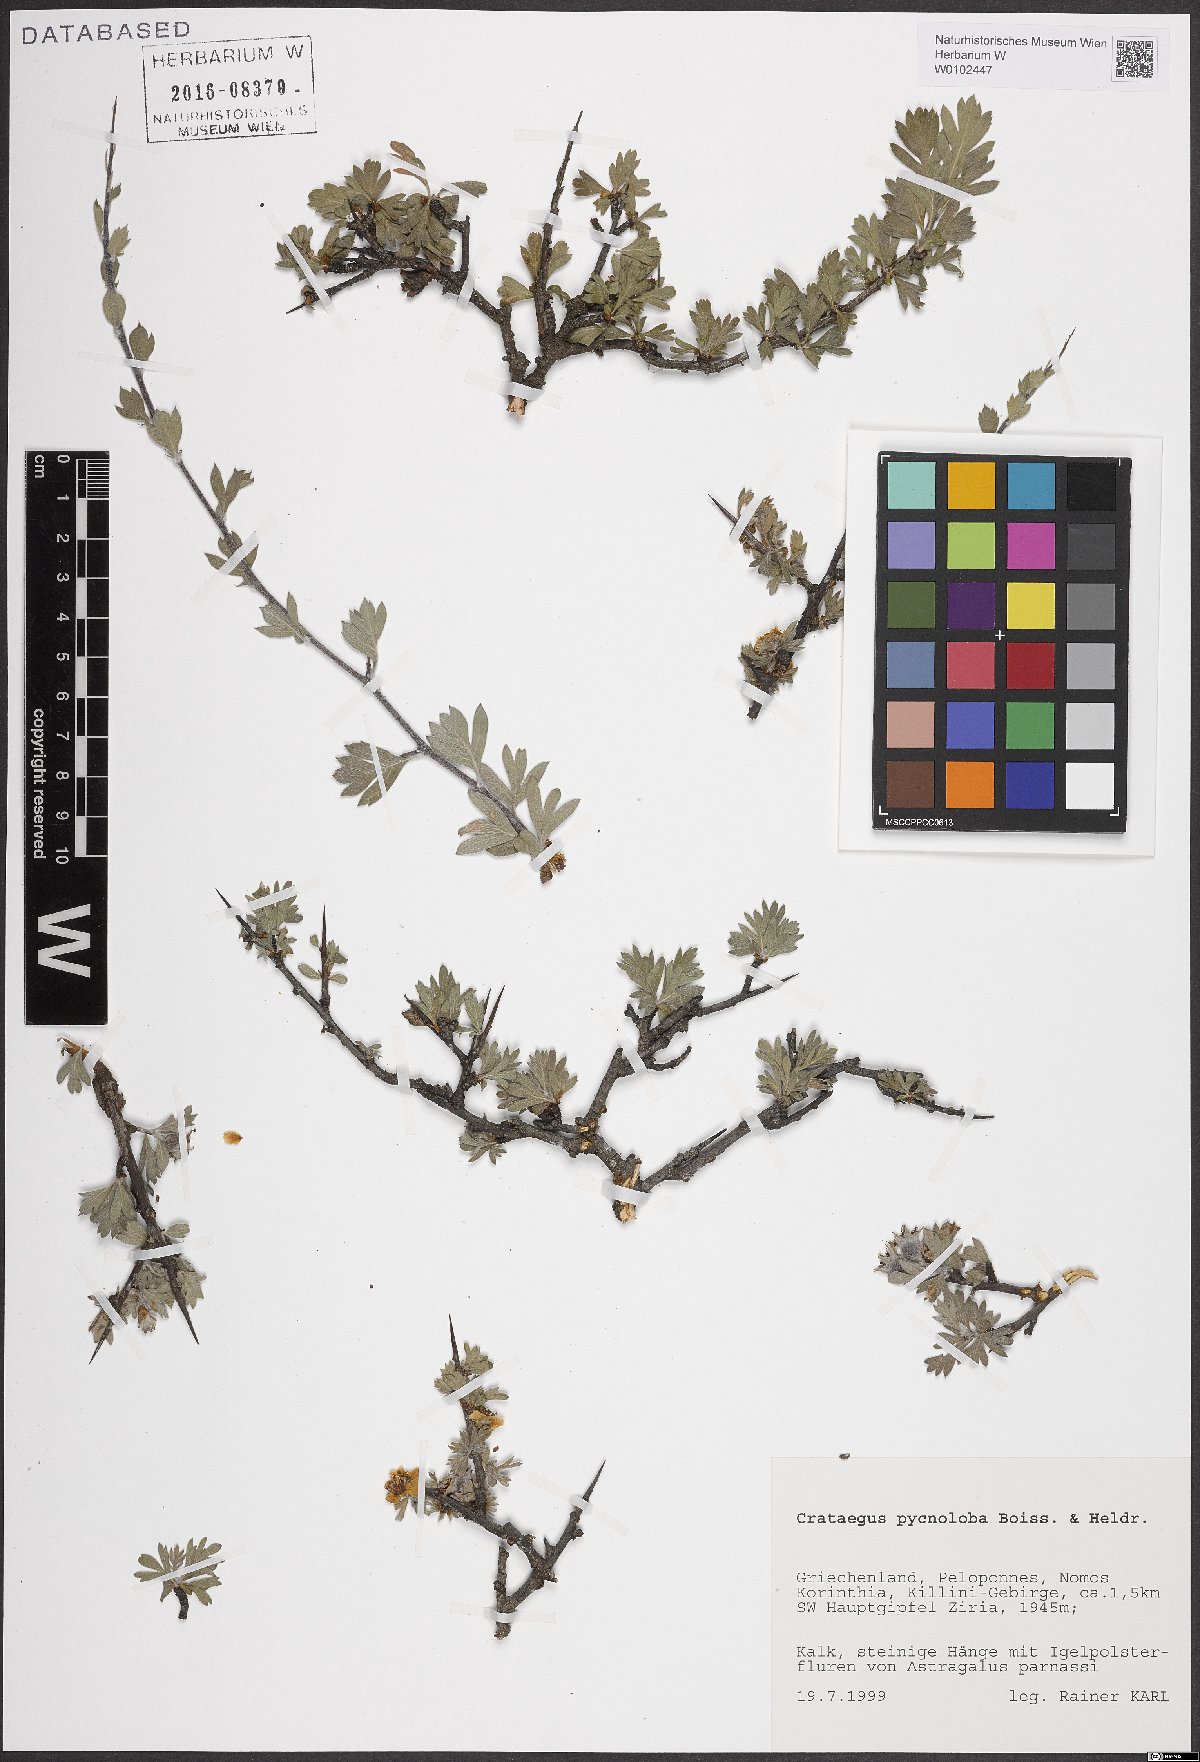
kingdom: Plantae
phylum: Tracheophyta
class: Magnoliopsida
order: Rosales
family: Rosaceae
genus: Crataegus
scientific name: Crataegus pycnoloba
